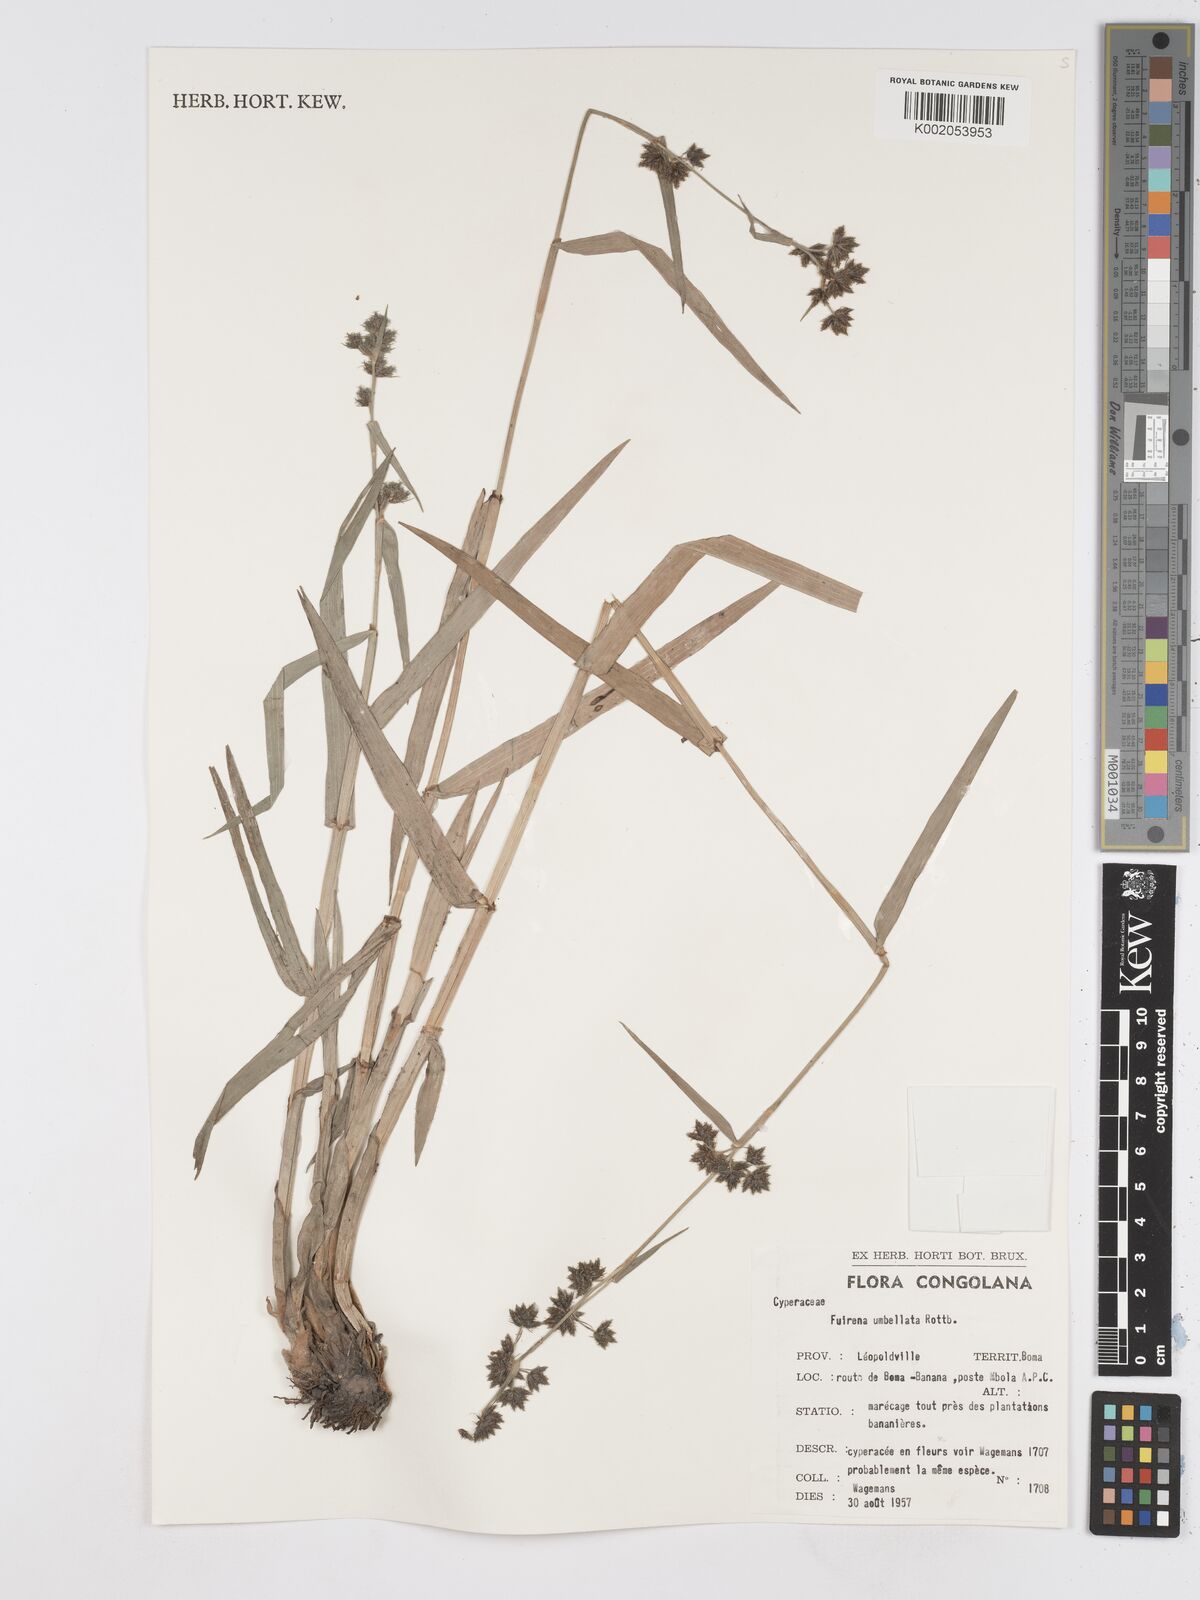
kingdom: Plantae
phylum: Tracheophyta
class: Liliopsida
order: Poales
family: Cyperaceae
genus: Fuirena
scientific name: Fuirena umbellata
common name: Yefen
